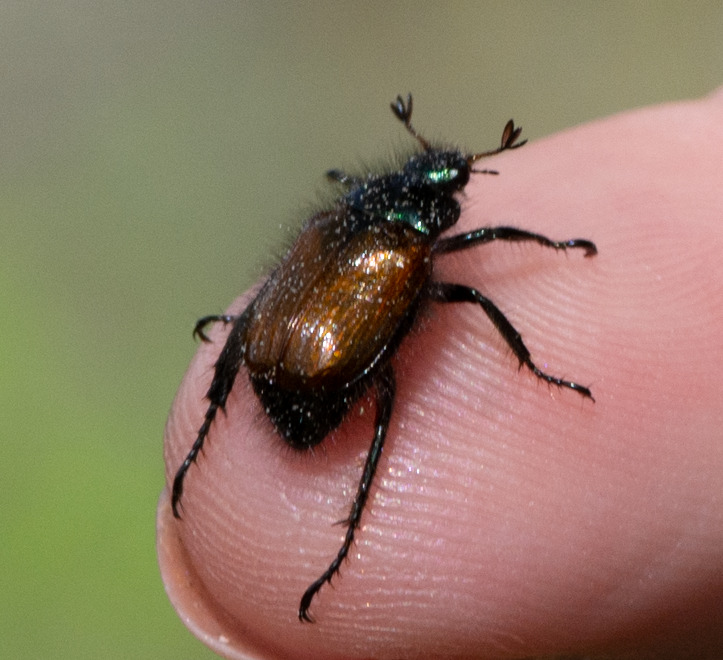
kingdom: Animalia
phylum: Arthropoda
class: Insecta
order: Coleoptera
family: Scarabaeidae
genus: Phyllopertha
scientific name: Phyllopertha horticola
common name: Gåsebille
